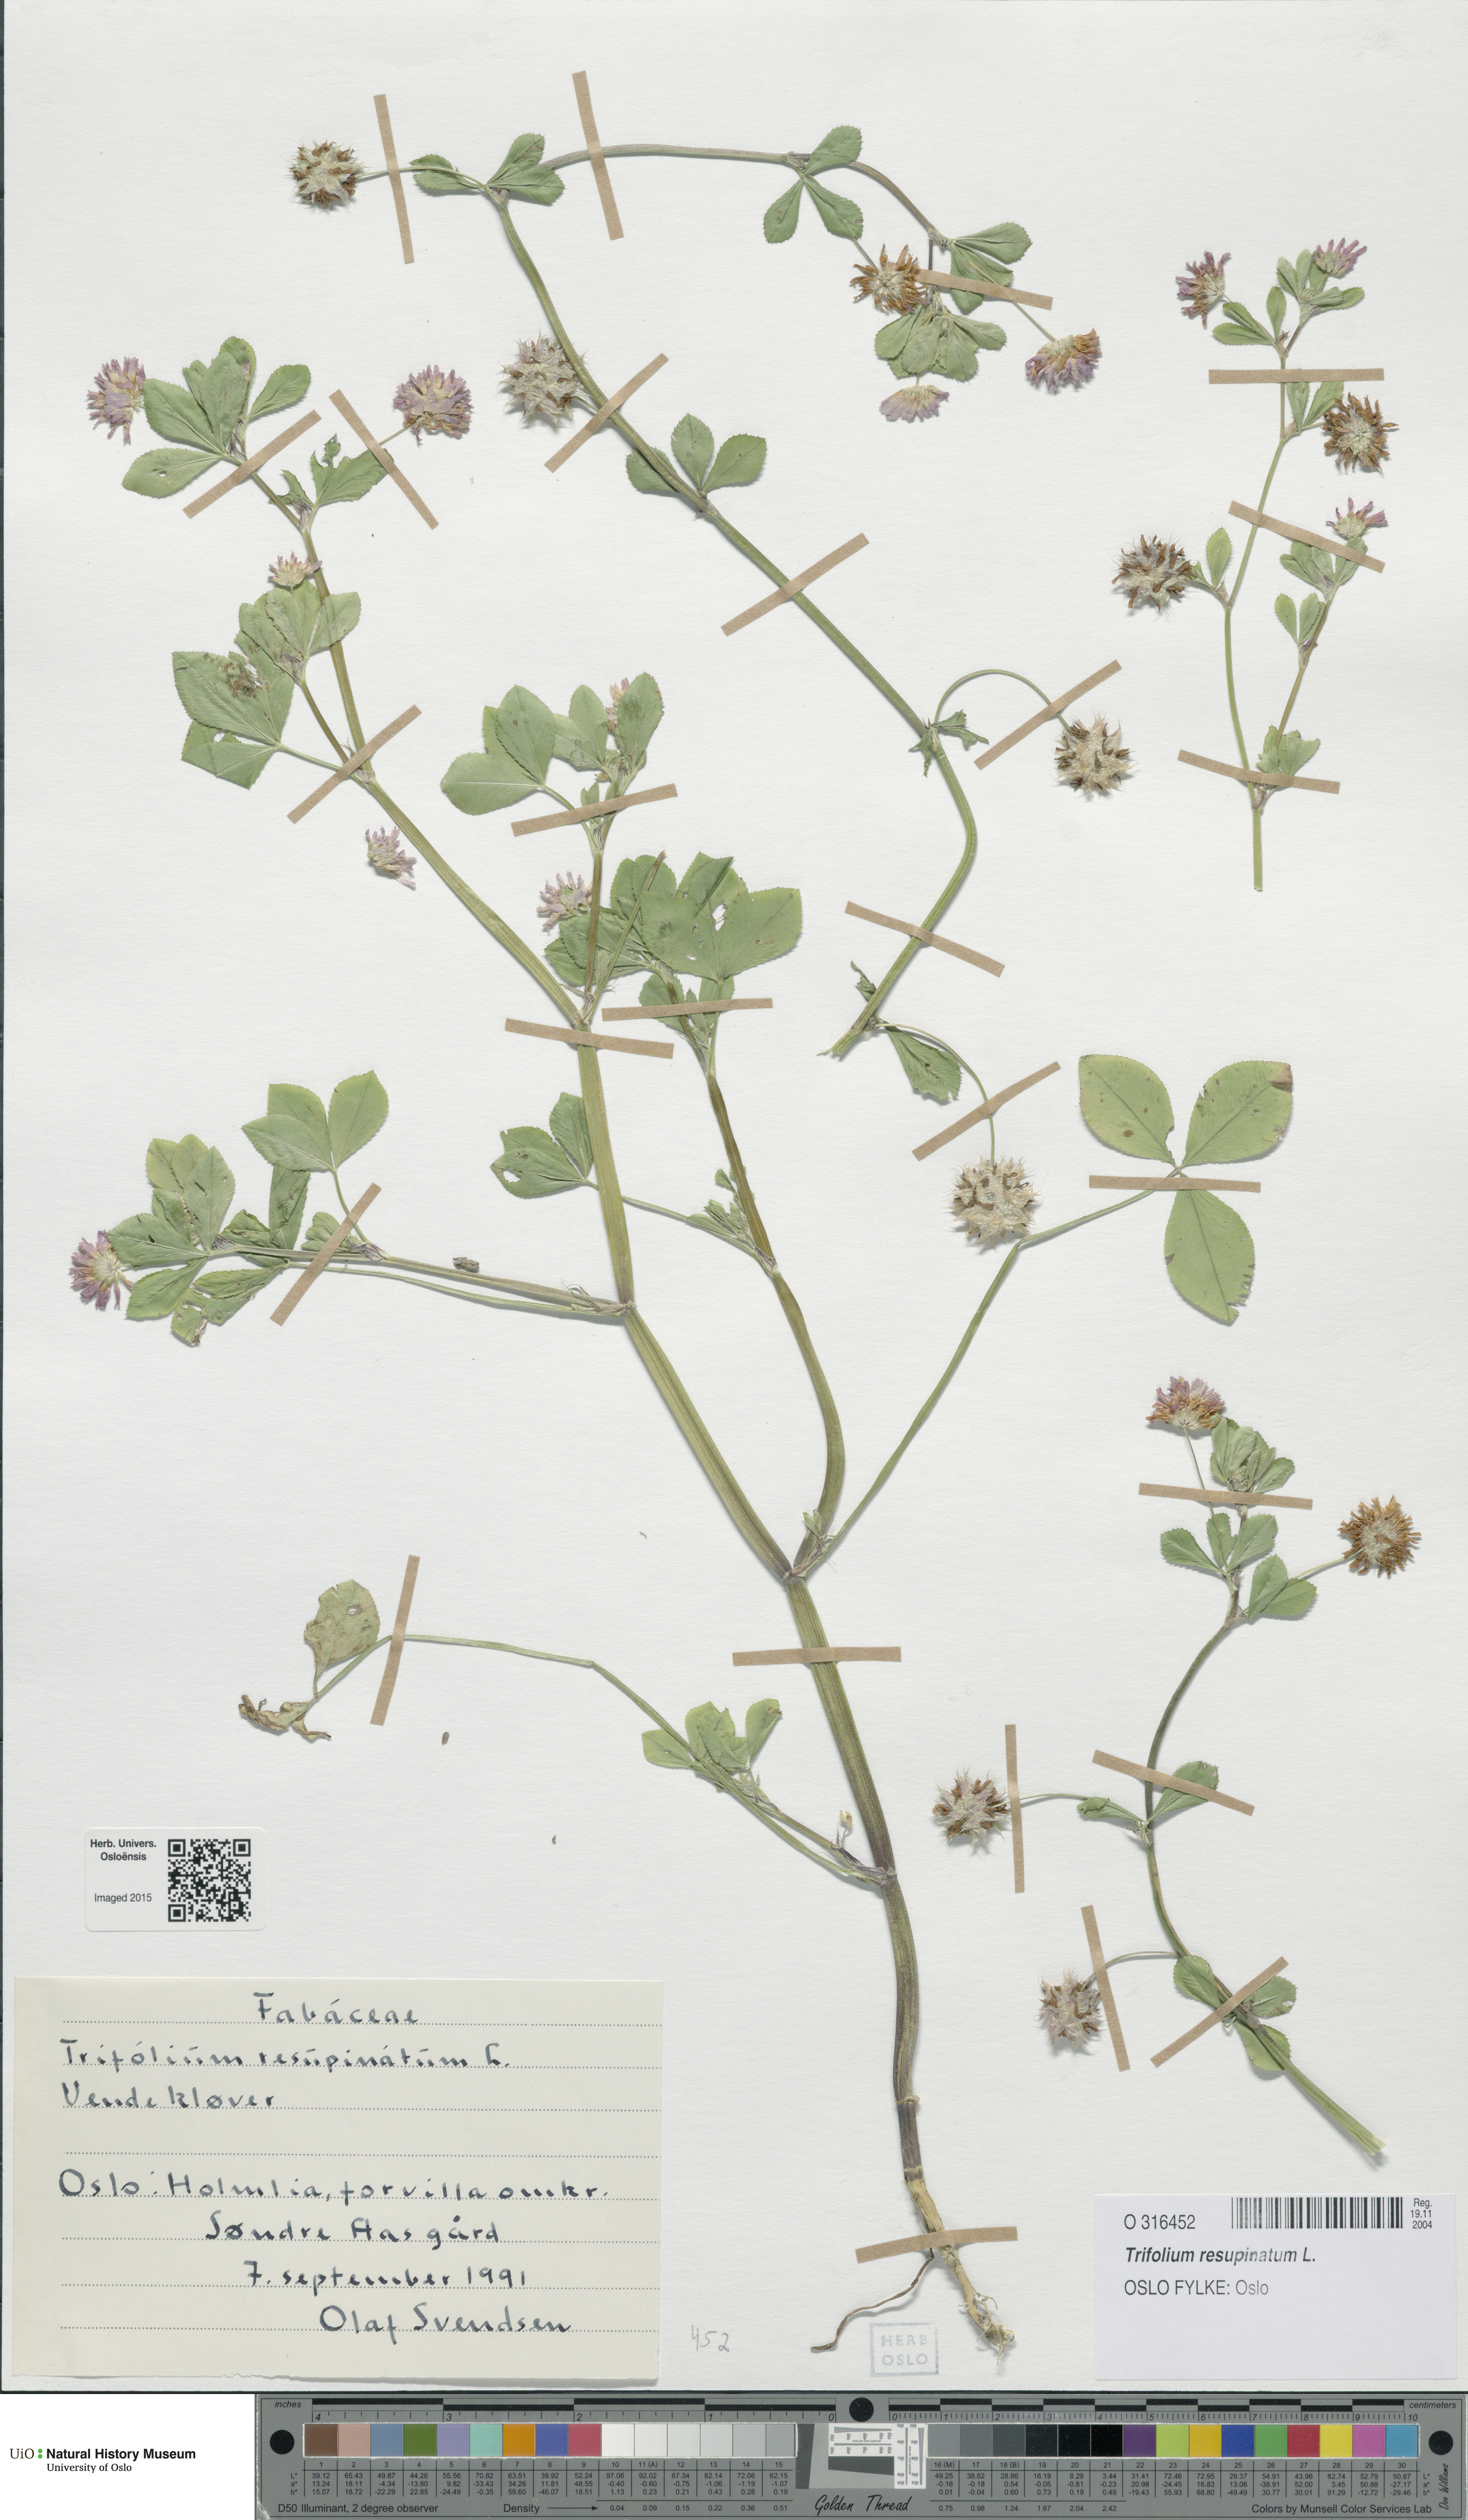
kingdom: Plantae
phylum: Tracheophyta
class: Magnoliopsida
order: Fabales
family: Fabaceae
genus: Trifolium
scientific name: Trifolium resupinatum
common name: Reversed clover
